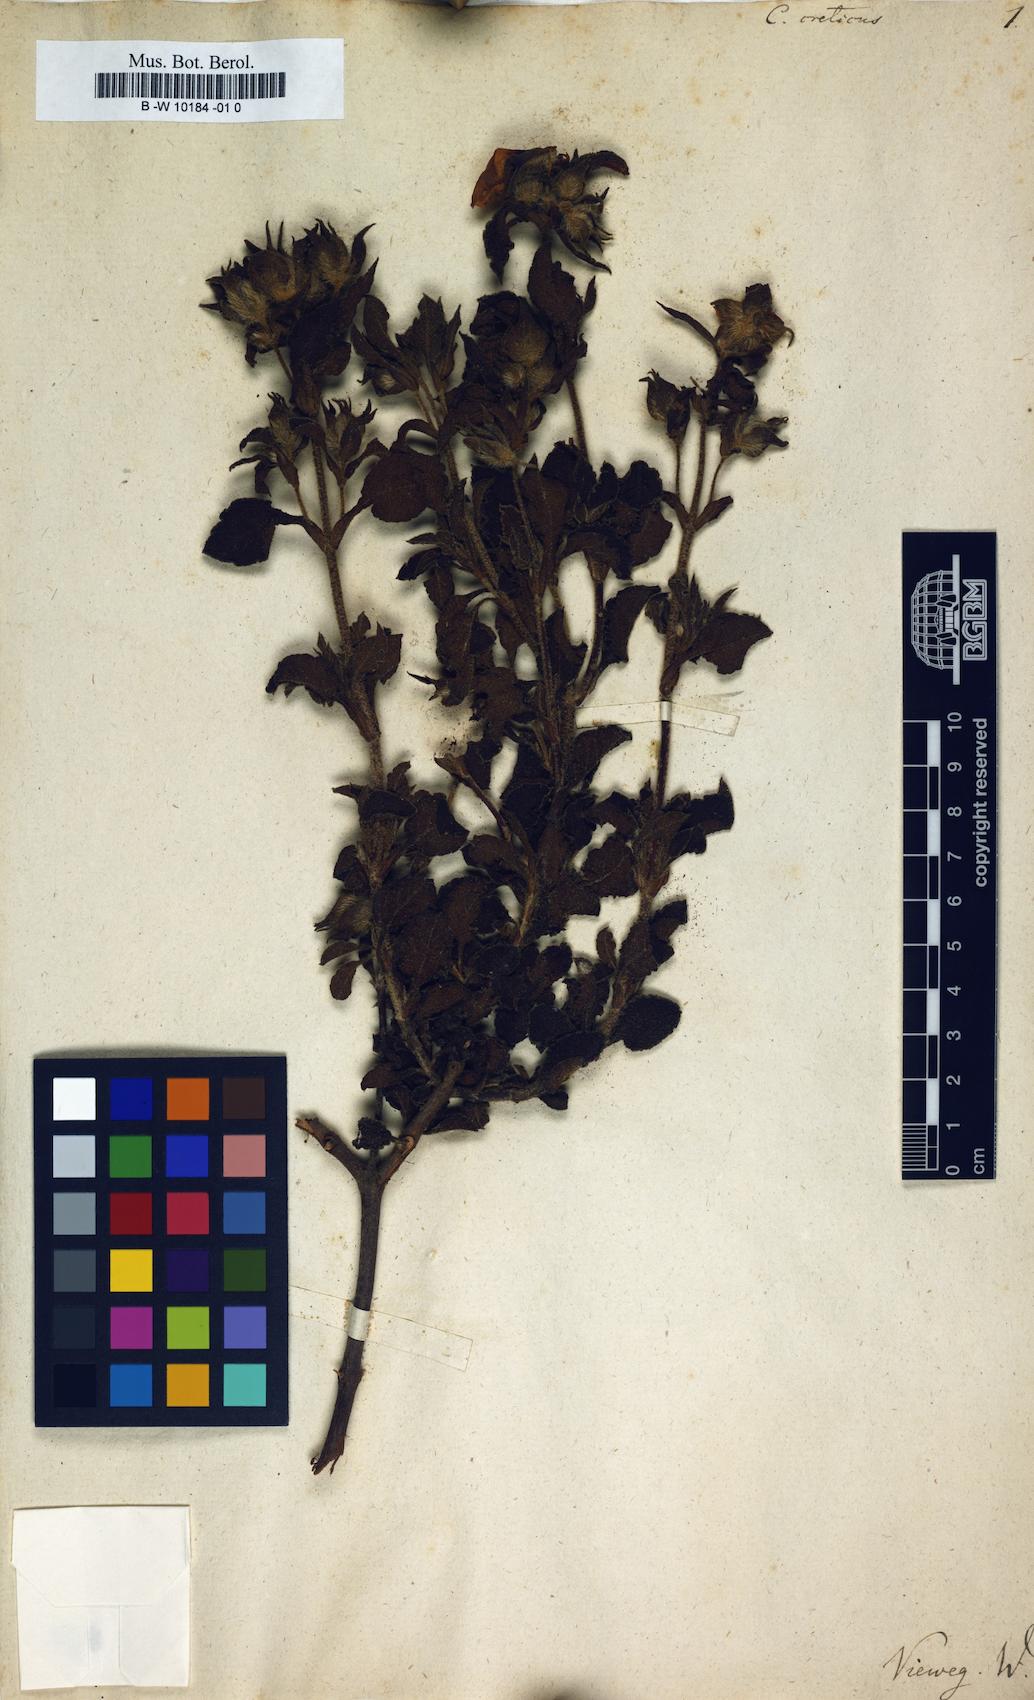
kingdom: Plantae
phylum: Tracheophyta
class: Magnoliopsida
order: Malvales
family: Cistaceae
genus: Cistus
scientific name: Cistus creticus
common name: Cretan rockrose
